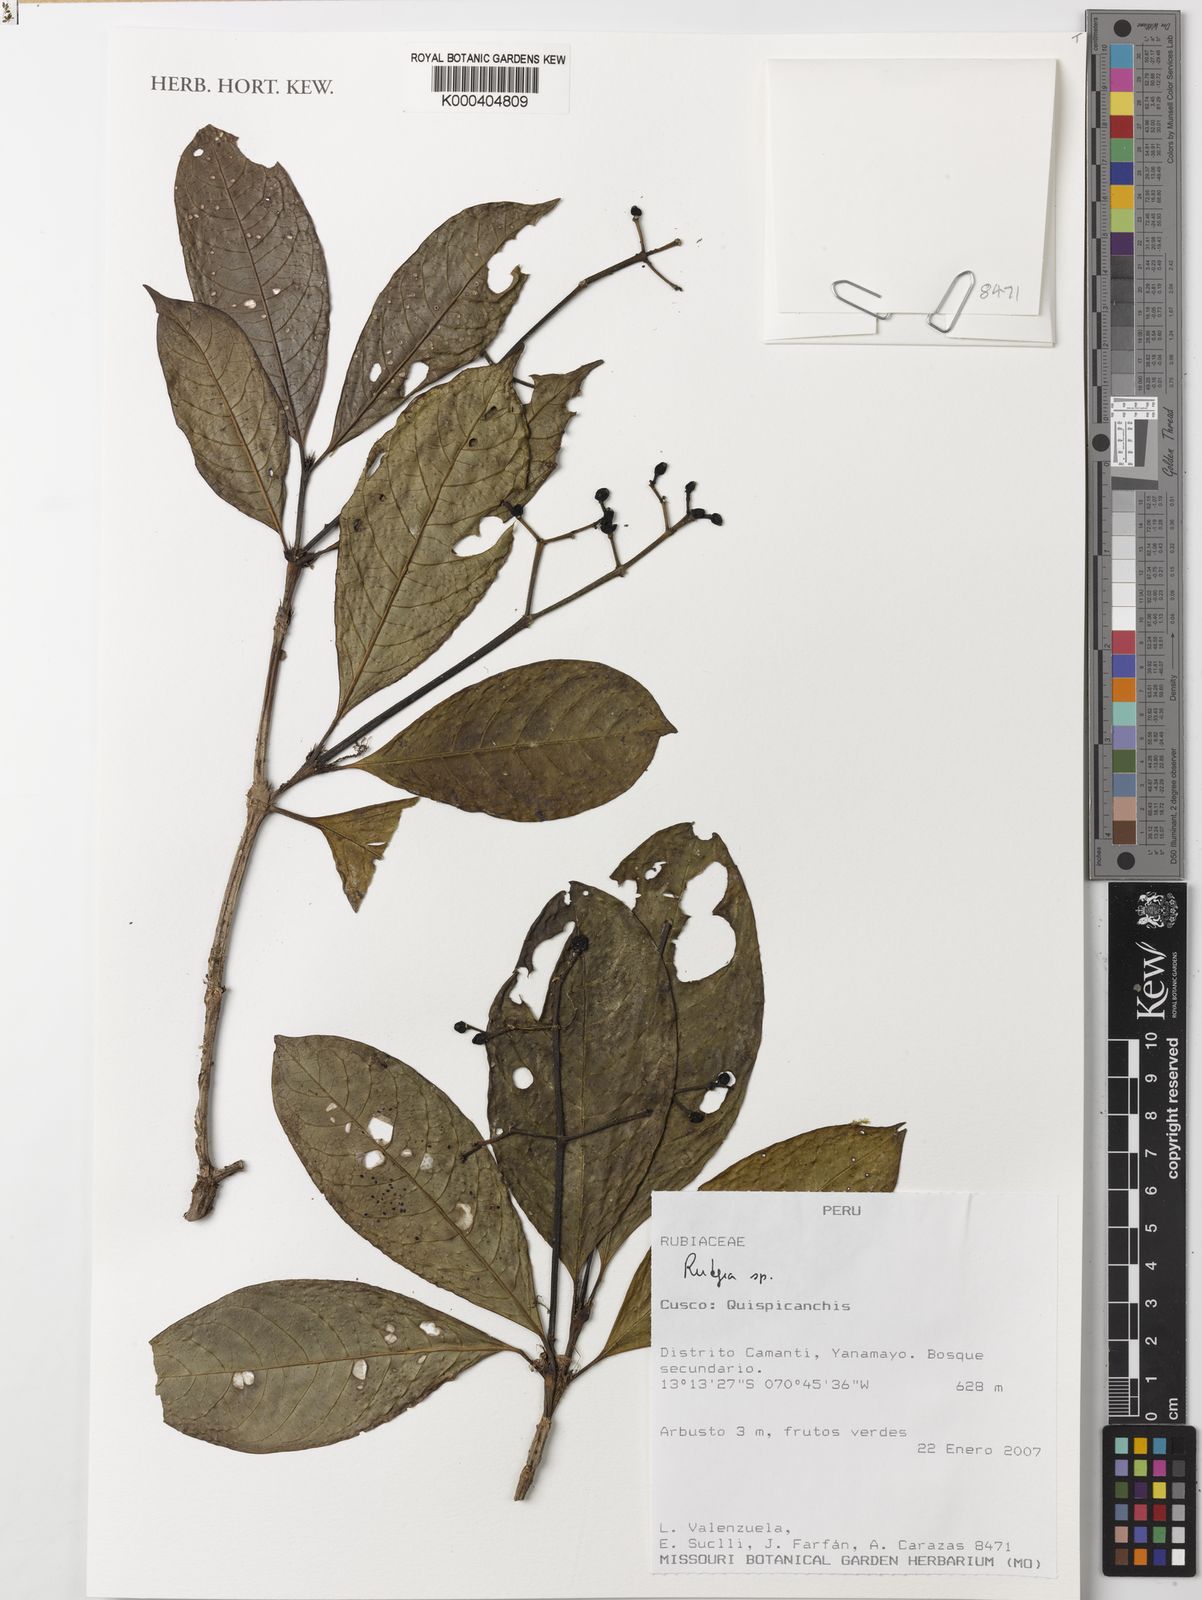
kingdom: Plantae
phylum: Tracheophyta
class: Magnoliopsida
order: Gentianales
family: Rubiaceae
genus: Rudgea
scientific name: Rudgea
